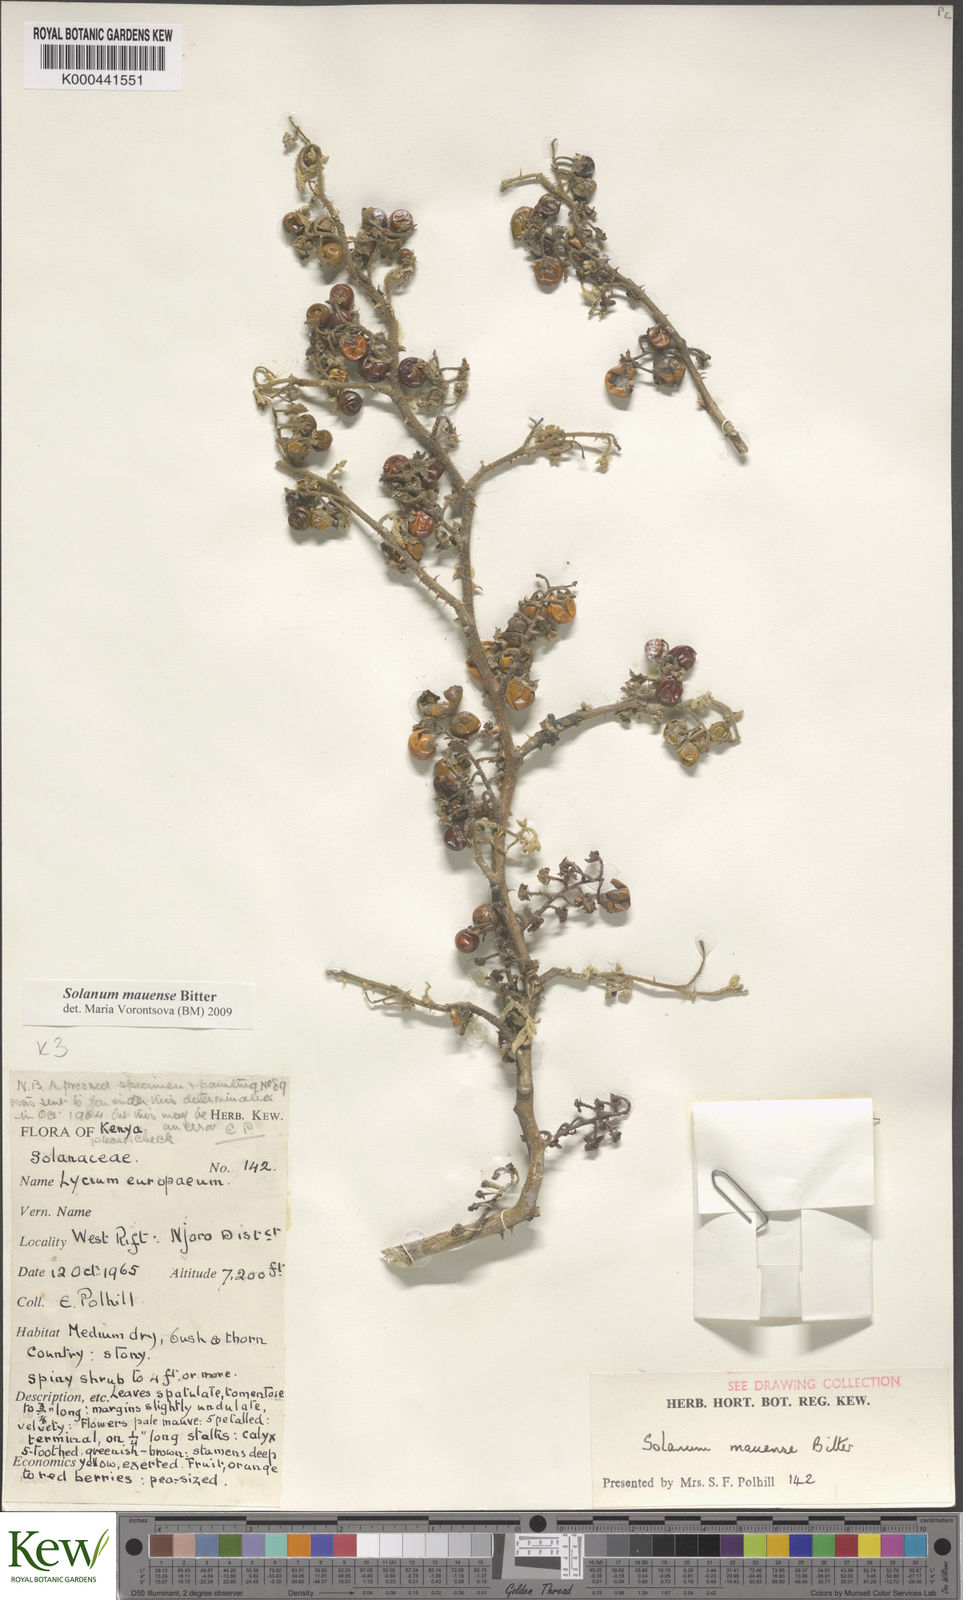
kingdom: Plantae
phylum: Tracheophyta
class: Magnoliopsida
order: Solanales
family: Solanaceae
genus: Solanum
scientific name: Solanum mauense
